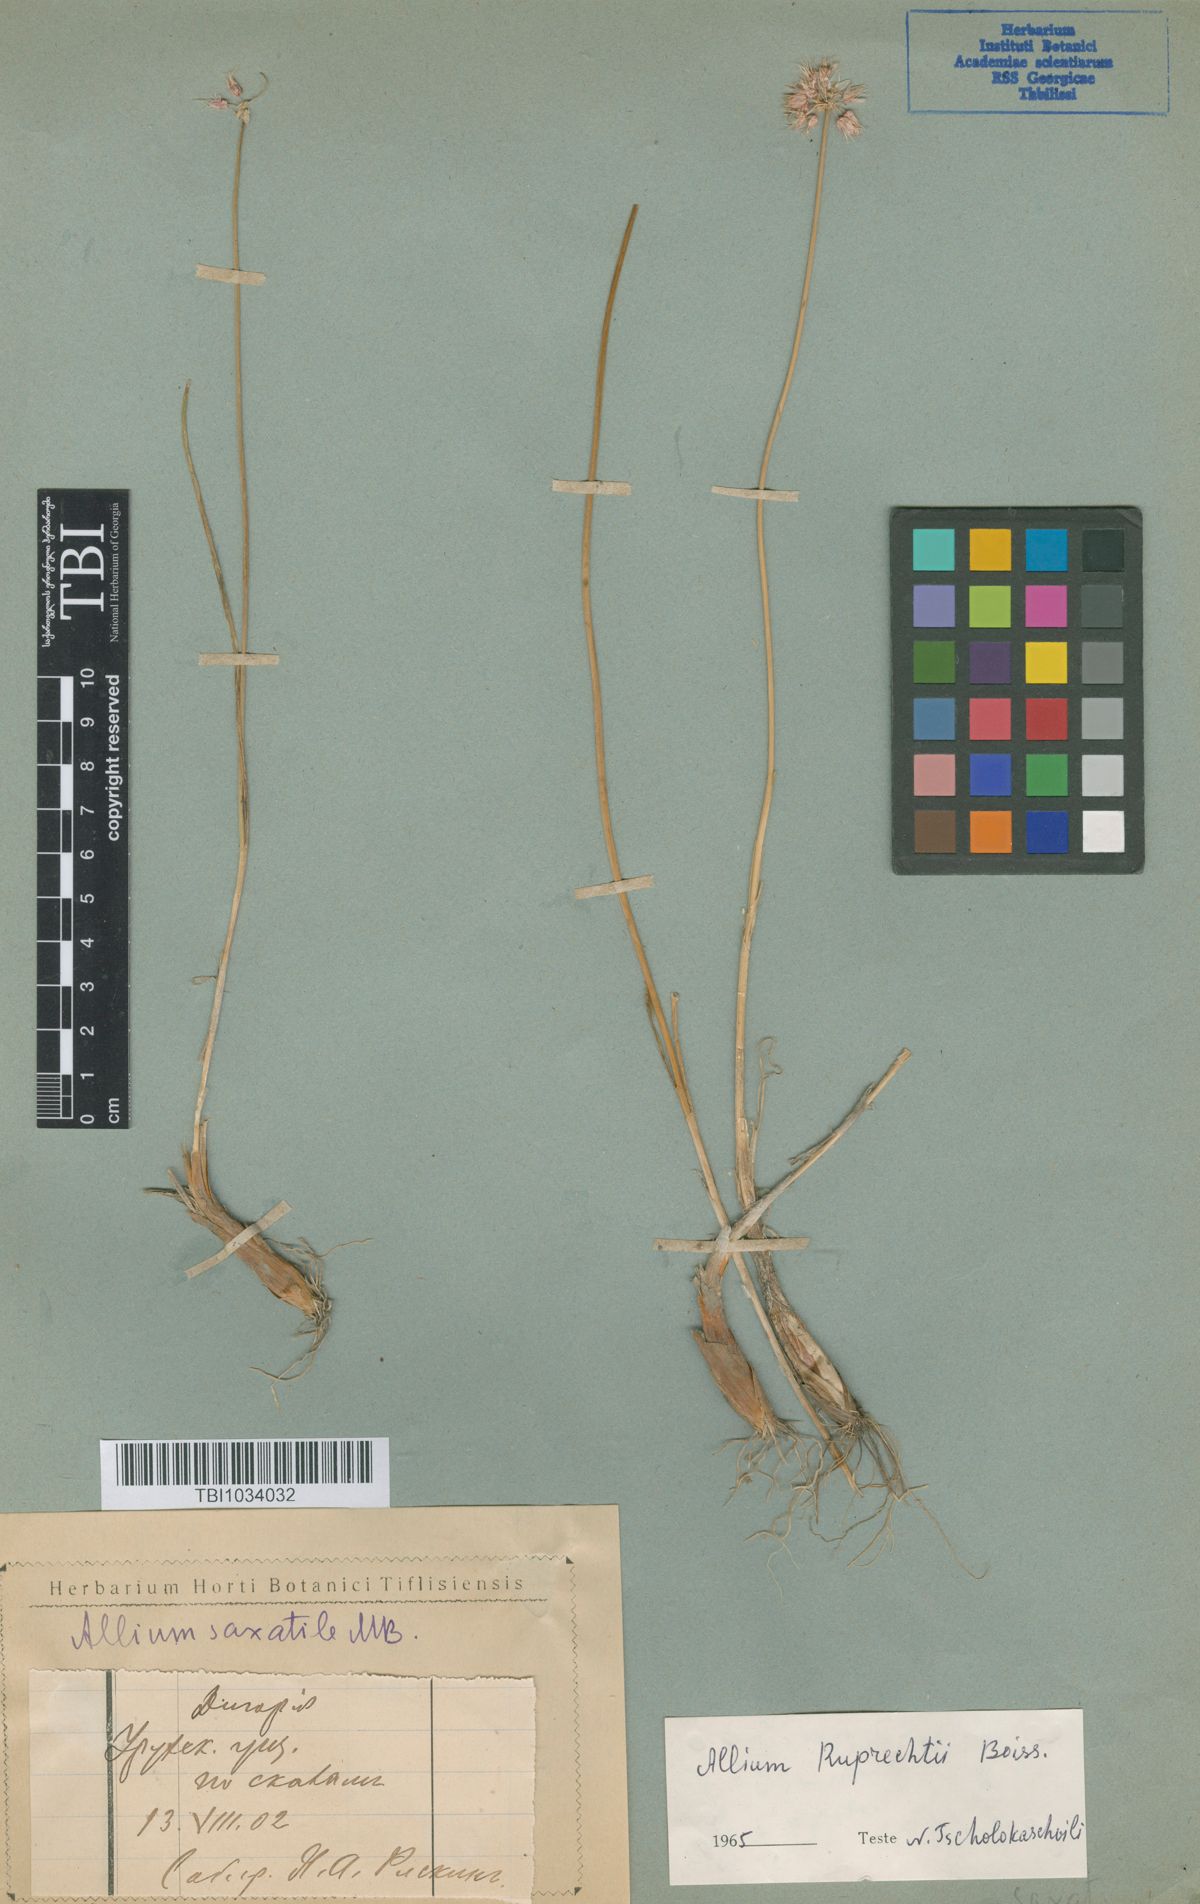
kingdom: Plantae
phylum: Tracheophyta
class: Liliopsida
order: Asparagales
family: Amaryllidaceae
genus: Allium
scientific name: Allium saxatile
